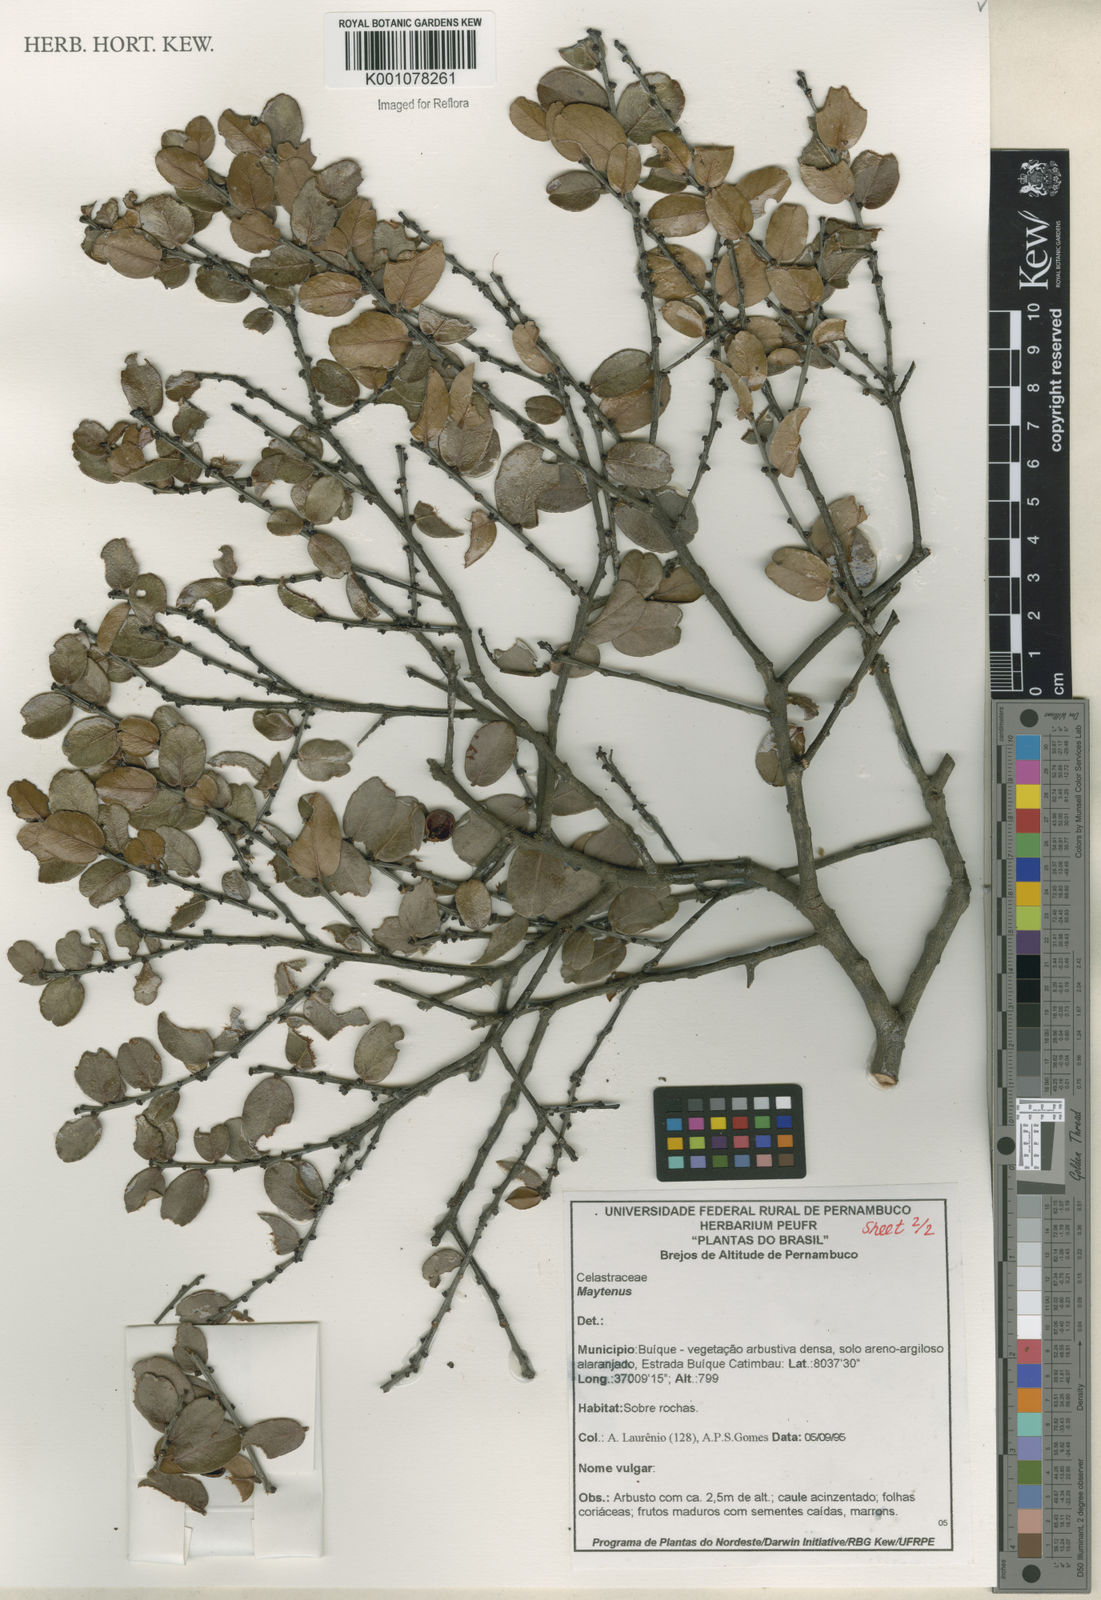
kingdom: Plantae
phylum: Tracheophyta
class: Magnoliopsida
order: Celastrales
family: Celastraceae
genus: Maytenus
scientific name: Maytenus
